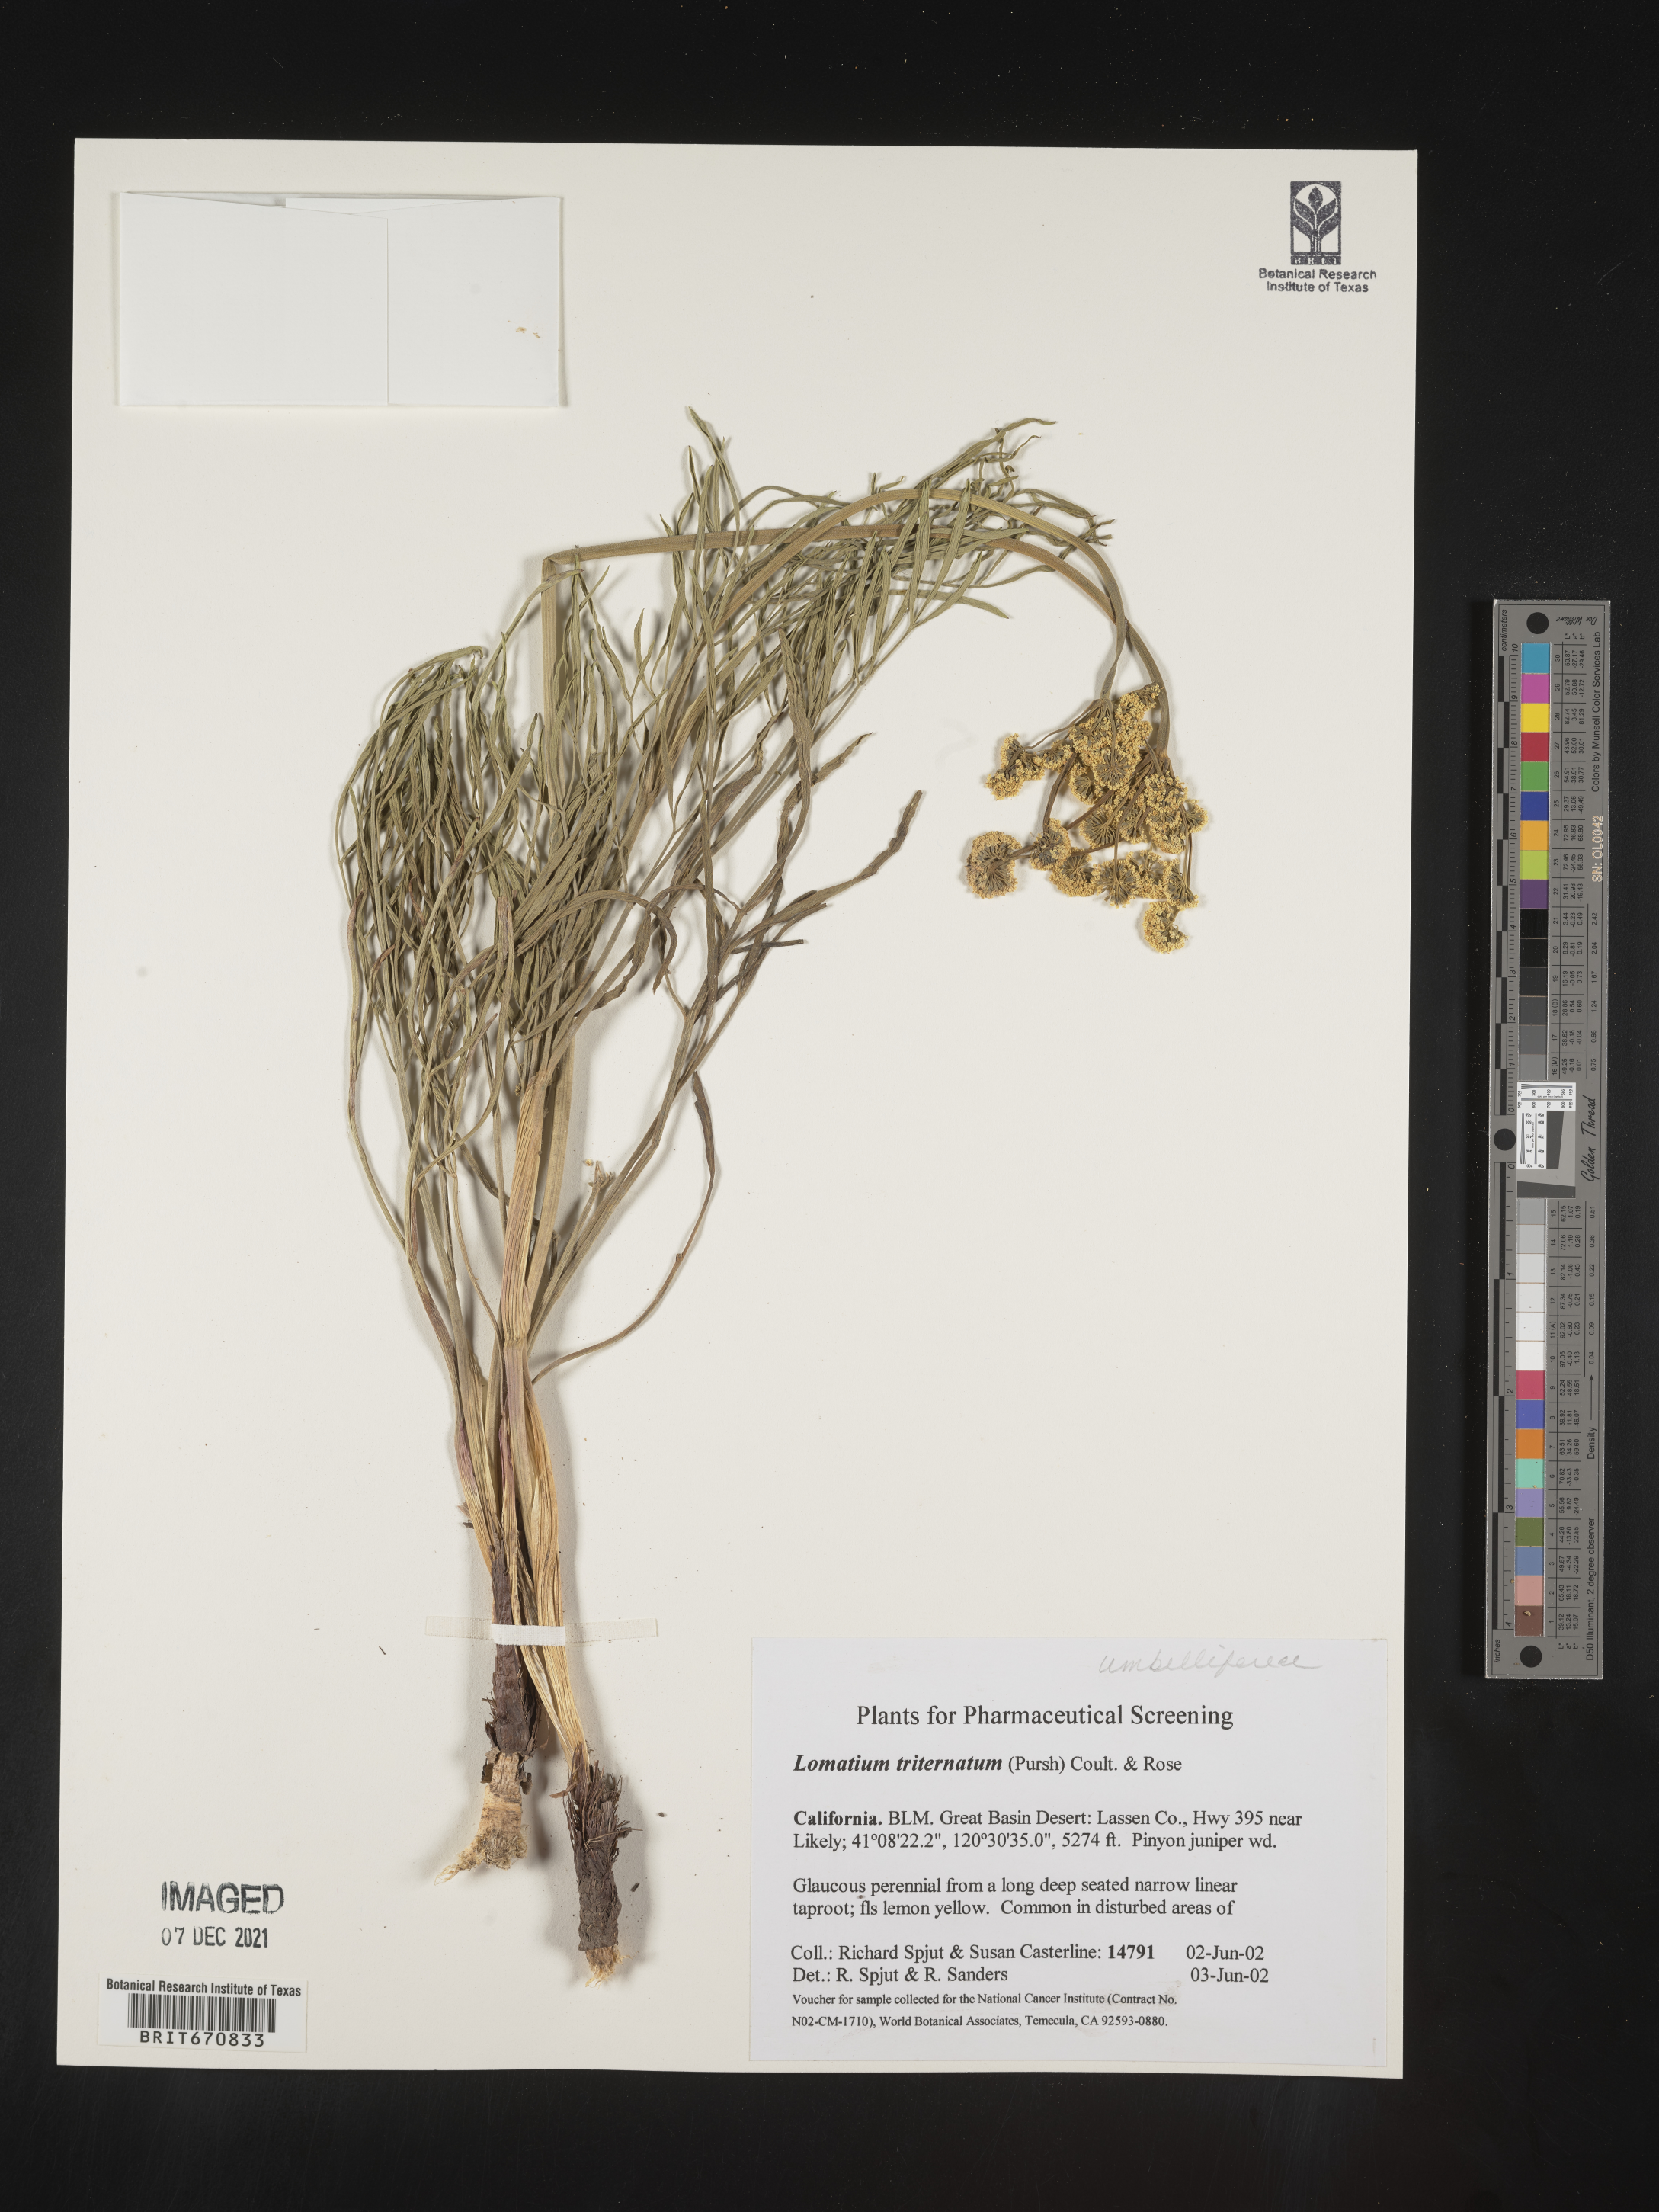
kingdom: Plantae
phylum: Tracheophyta
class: Magnoliopsida
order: Apiales
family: Apiaceae
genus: Lomatium
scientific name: Lomatium triternatum
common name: Ternate lomatium
